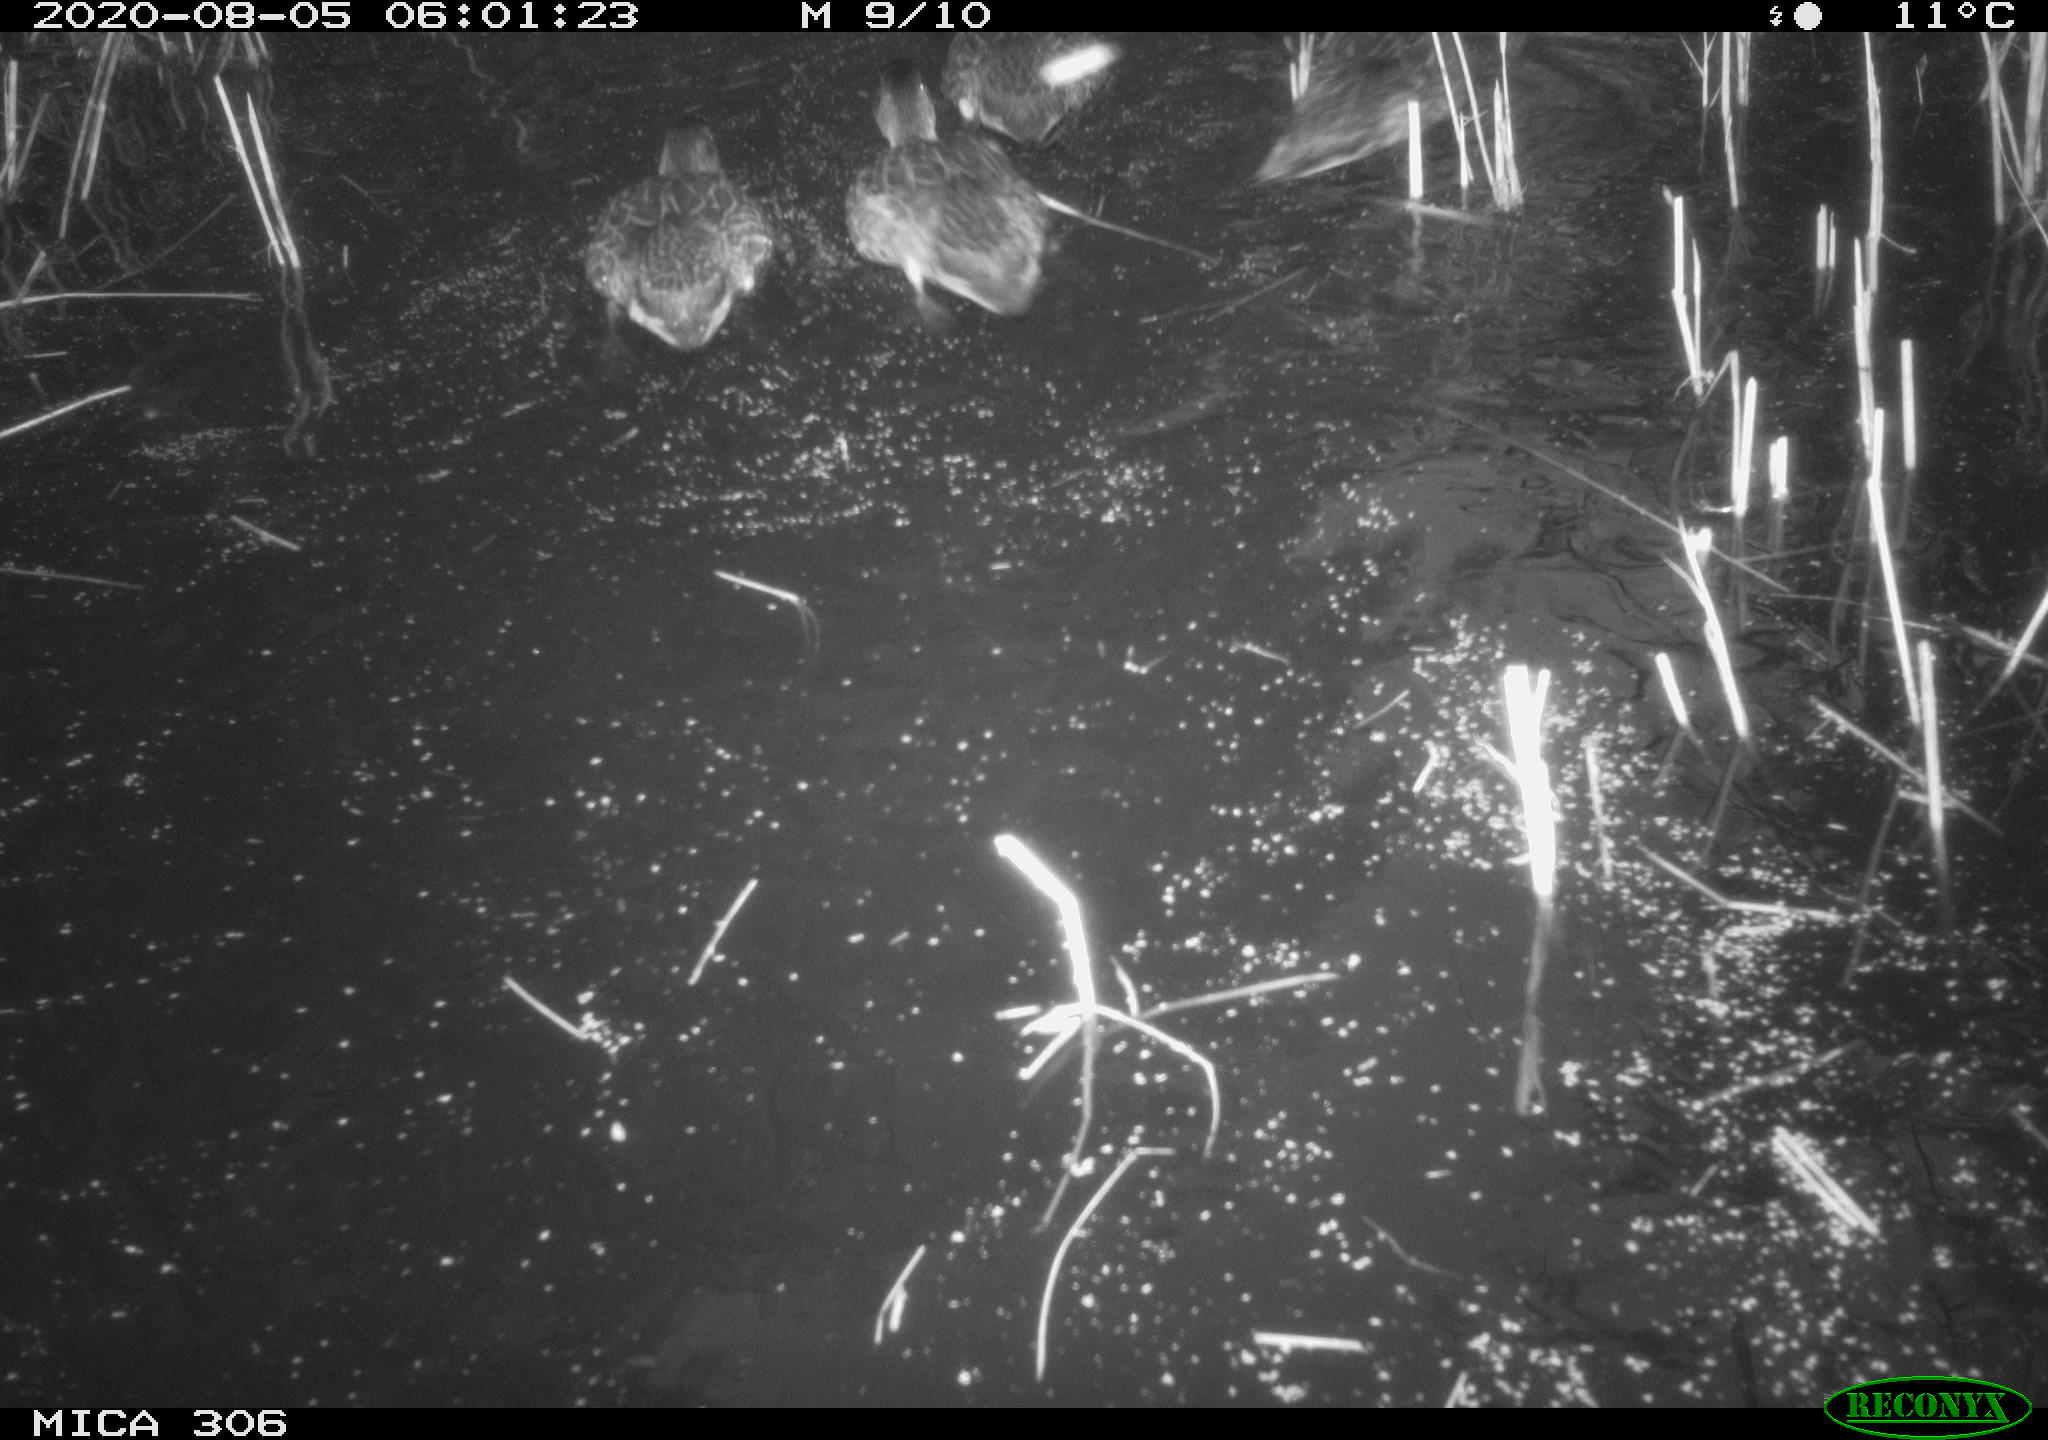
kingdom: Animalia
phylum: Chordata
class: Aves
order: Anseriformes
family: Anatidae
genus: Anas
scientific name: Anas platyrhynchos
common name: Mallard
